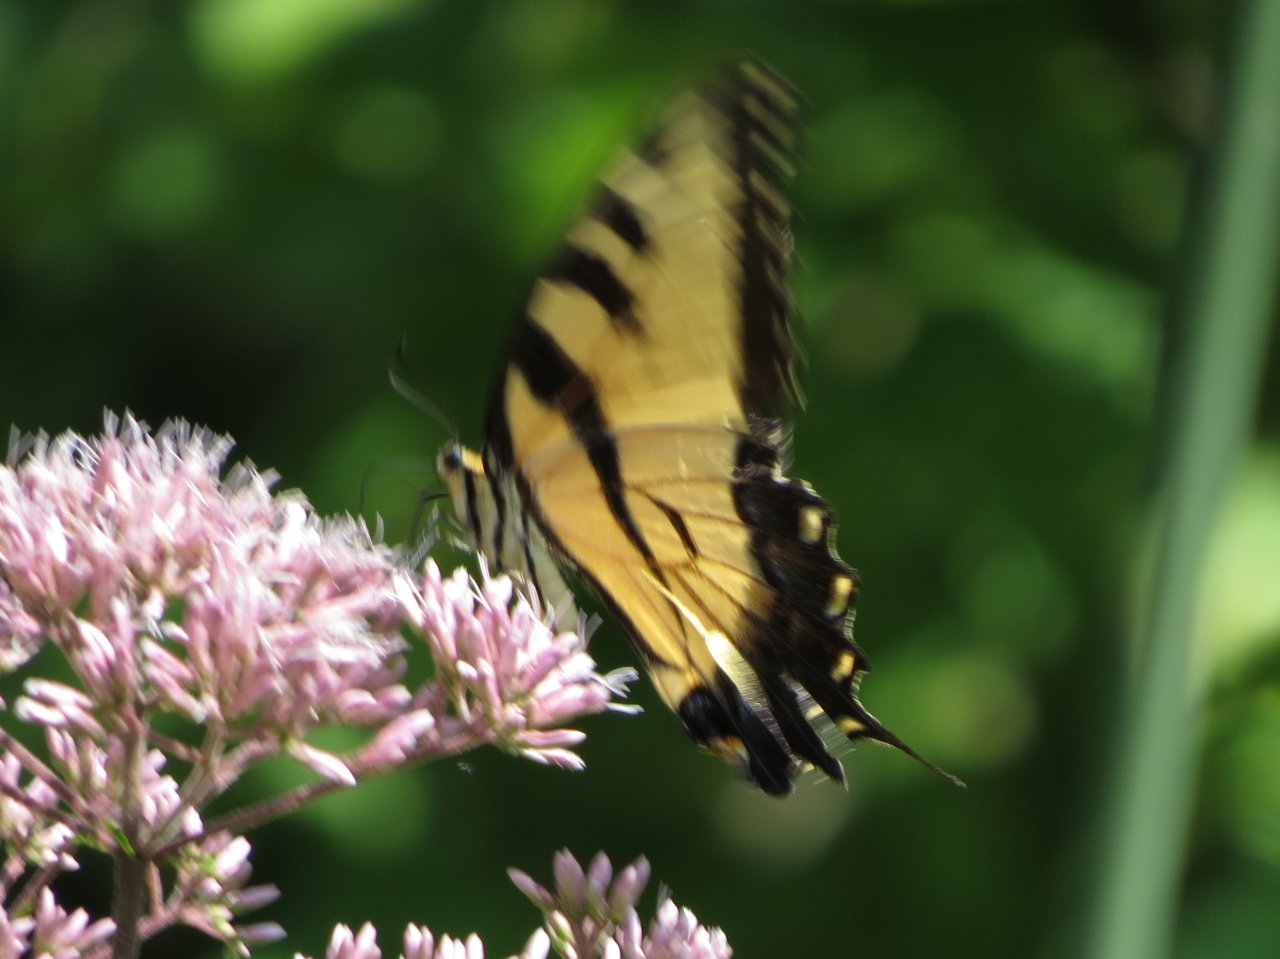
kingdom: Animalia
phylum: Arthropoda
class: Insecta
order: Lepidoptera
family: Papilionidae
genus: Pterourus
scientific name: Pterourus glaucus
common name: Eastern Tiger Swallowtail
